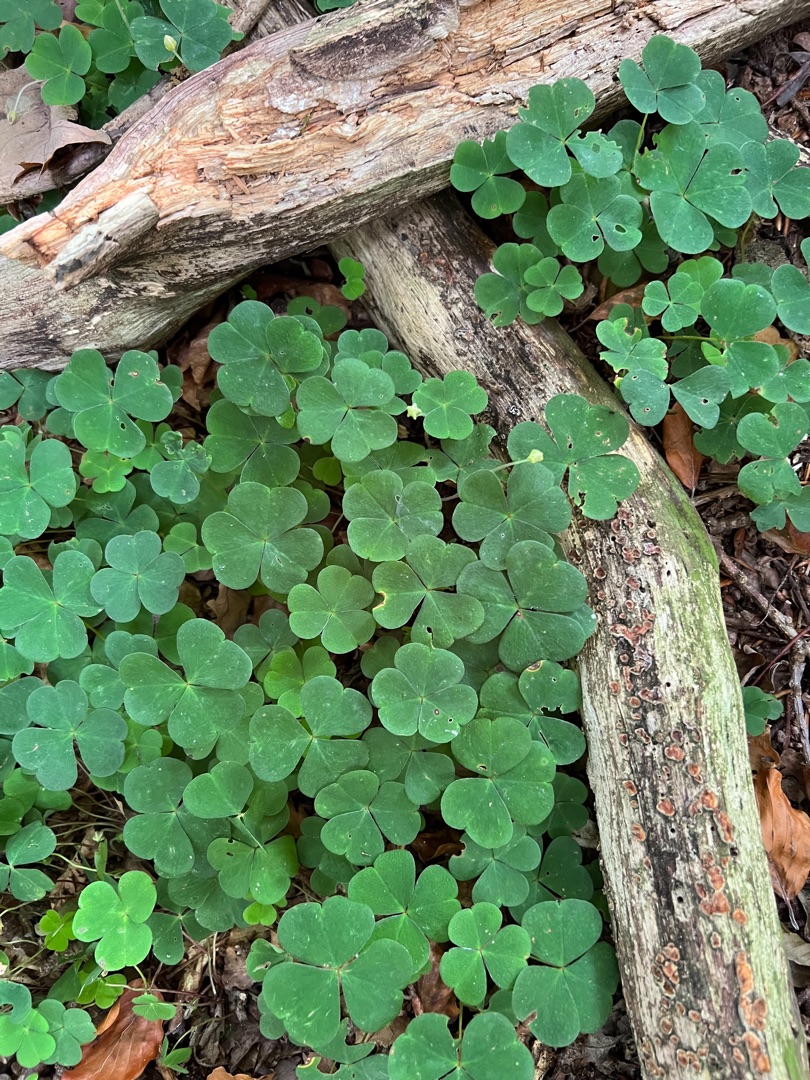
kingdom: Plantae
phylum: Tracheophyta
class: Magnoliopsida
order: Oxalidales
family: Oxalidaceae
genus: Oxalis
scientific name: Oxalis acetosella
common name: Skovsyre
